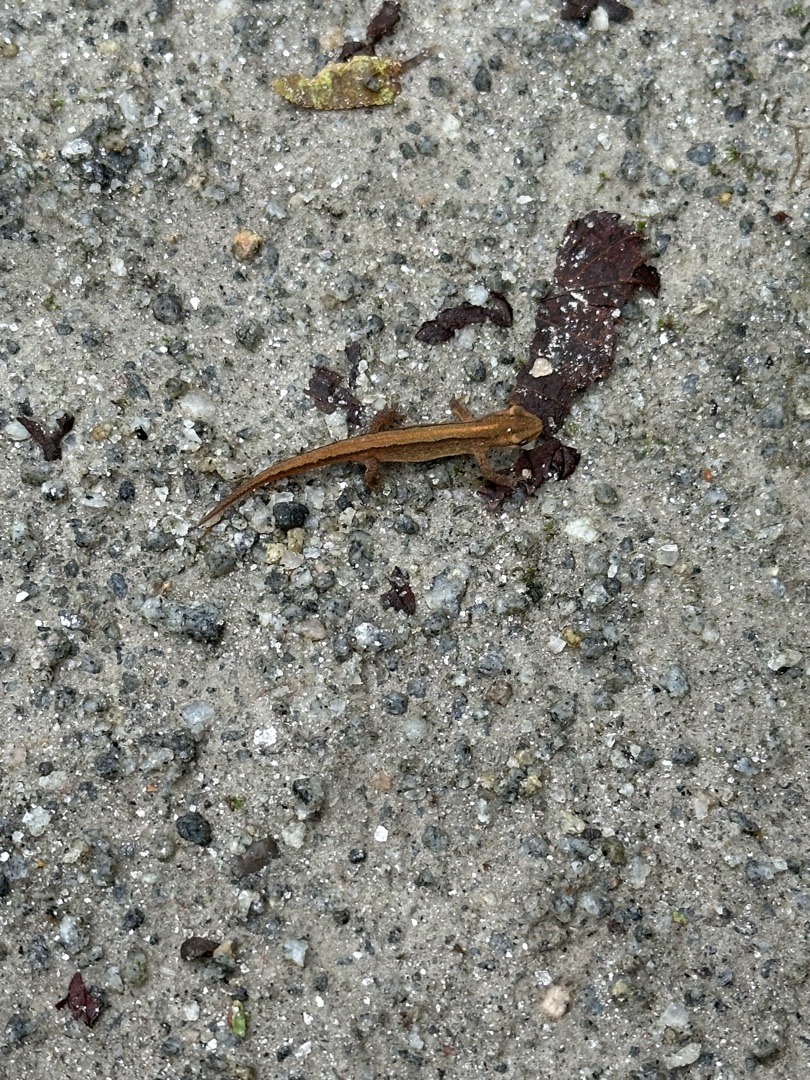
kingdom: Animalia
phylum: Chordata
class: Amphibia
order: Caudata
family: Salamandridae
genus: Lissotriton
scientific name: Lissotriton vulgaris
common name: Lille vandsalamander
